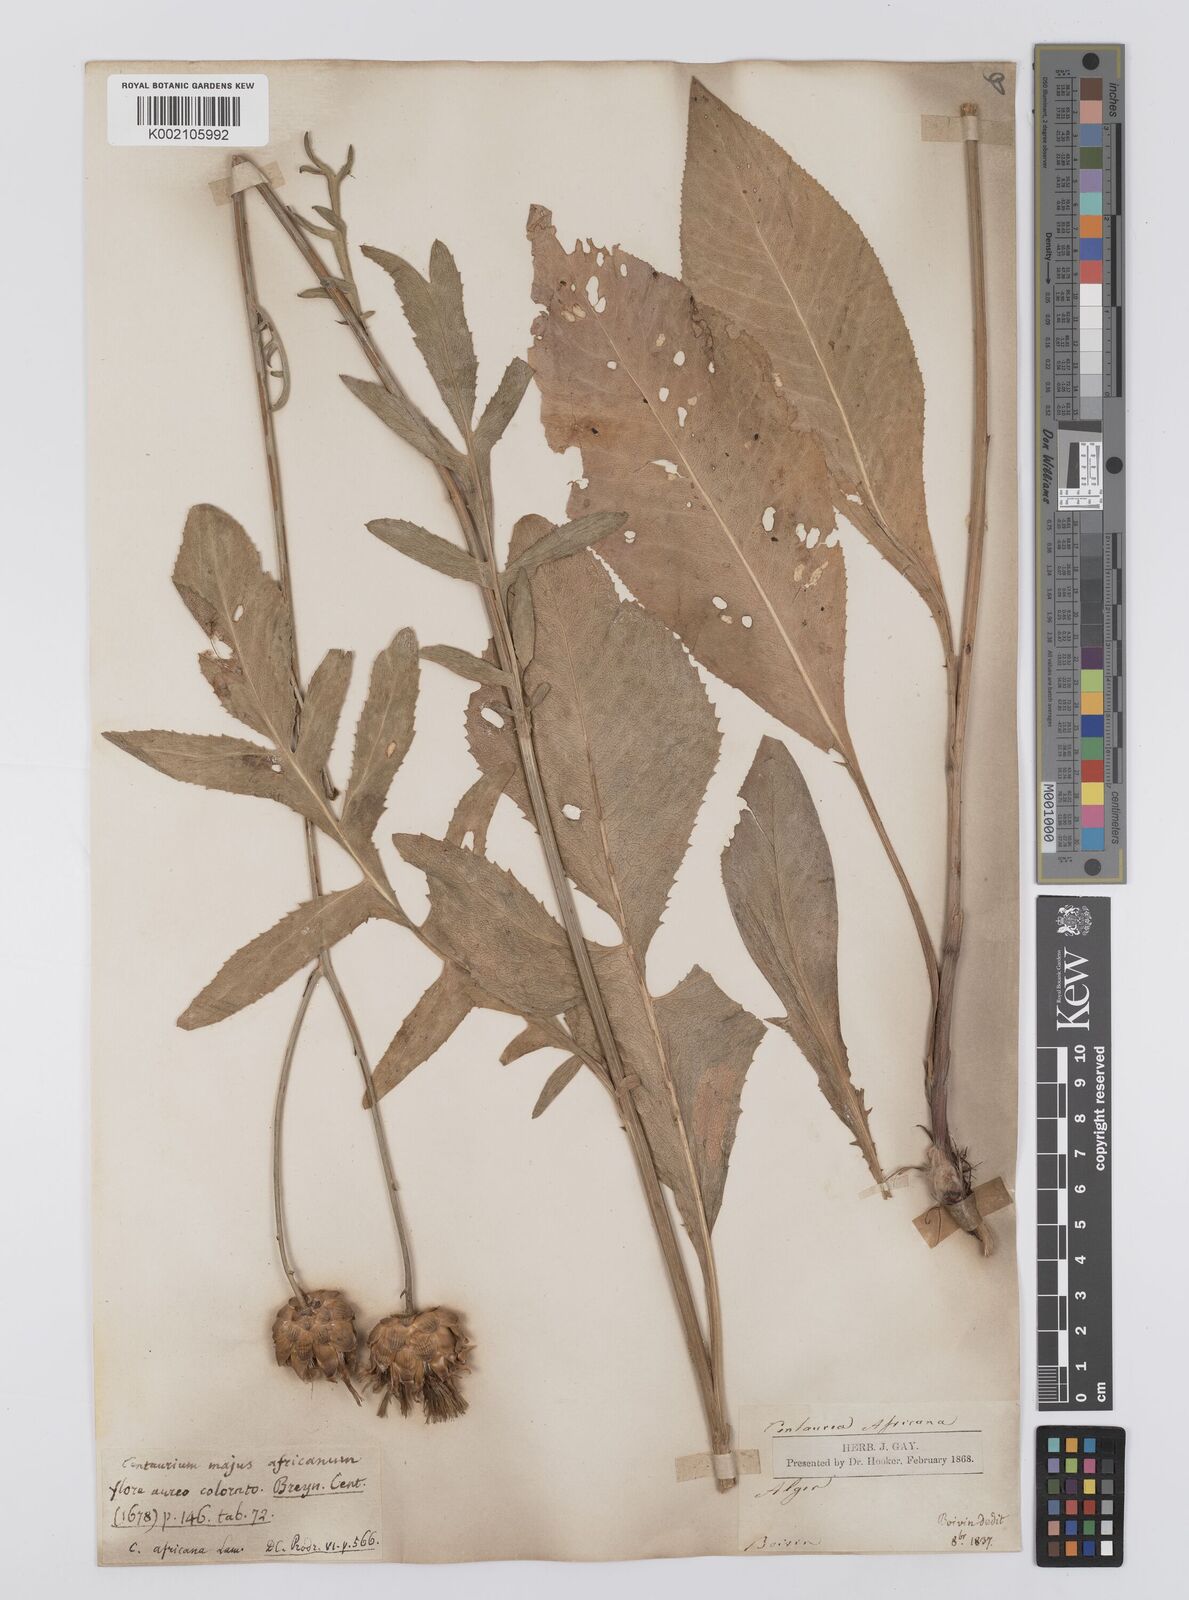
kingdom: Plantae
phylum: Tracheophyta
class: Magnoliopsida
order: Asterales
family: Asteraceae
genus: Rhaponticoides
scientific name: Rhaponticoides africana
